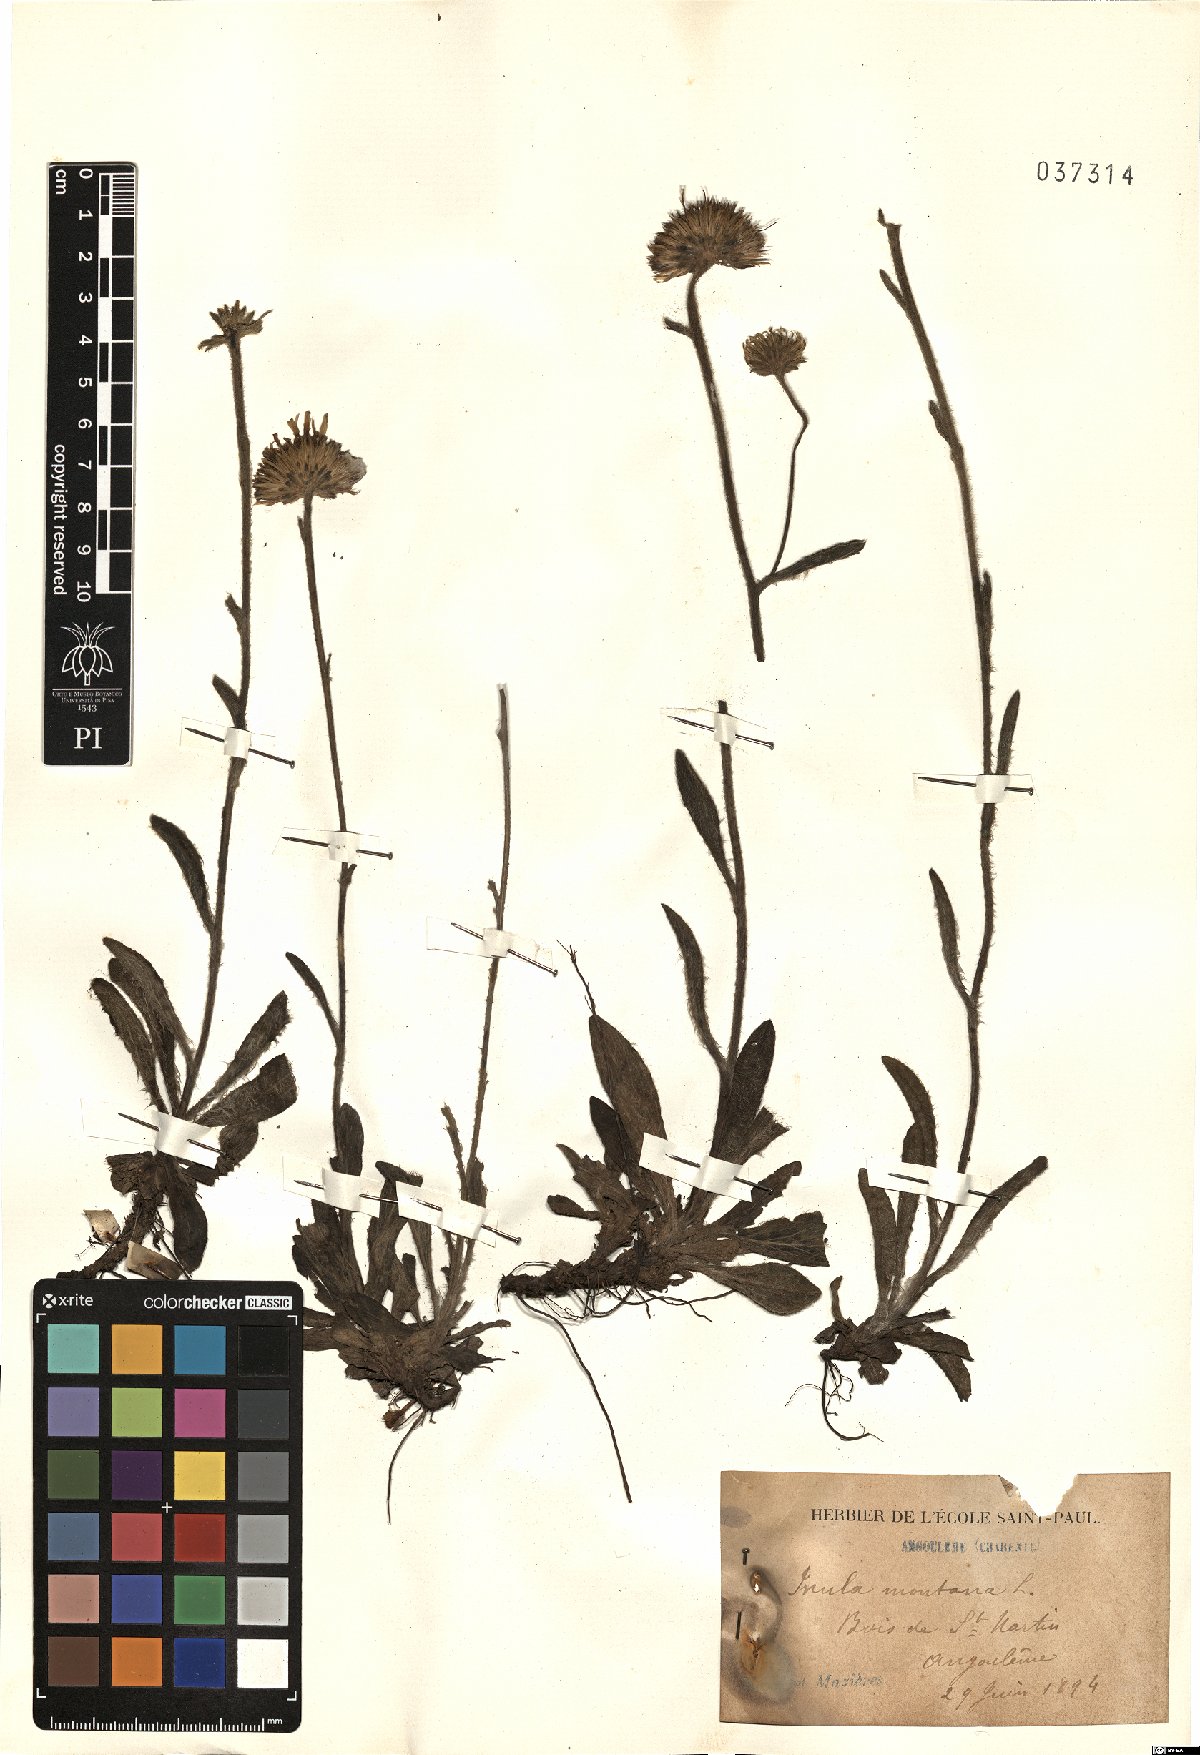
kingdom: Plantae
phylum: Tracheophyta
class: Magnoliopsida
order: Asterales
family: Asteraceae
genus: Pentanema
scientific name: Pentanema montanum
